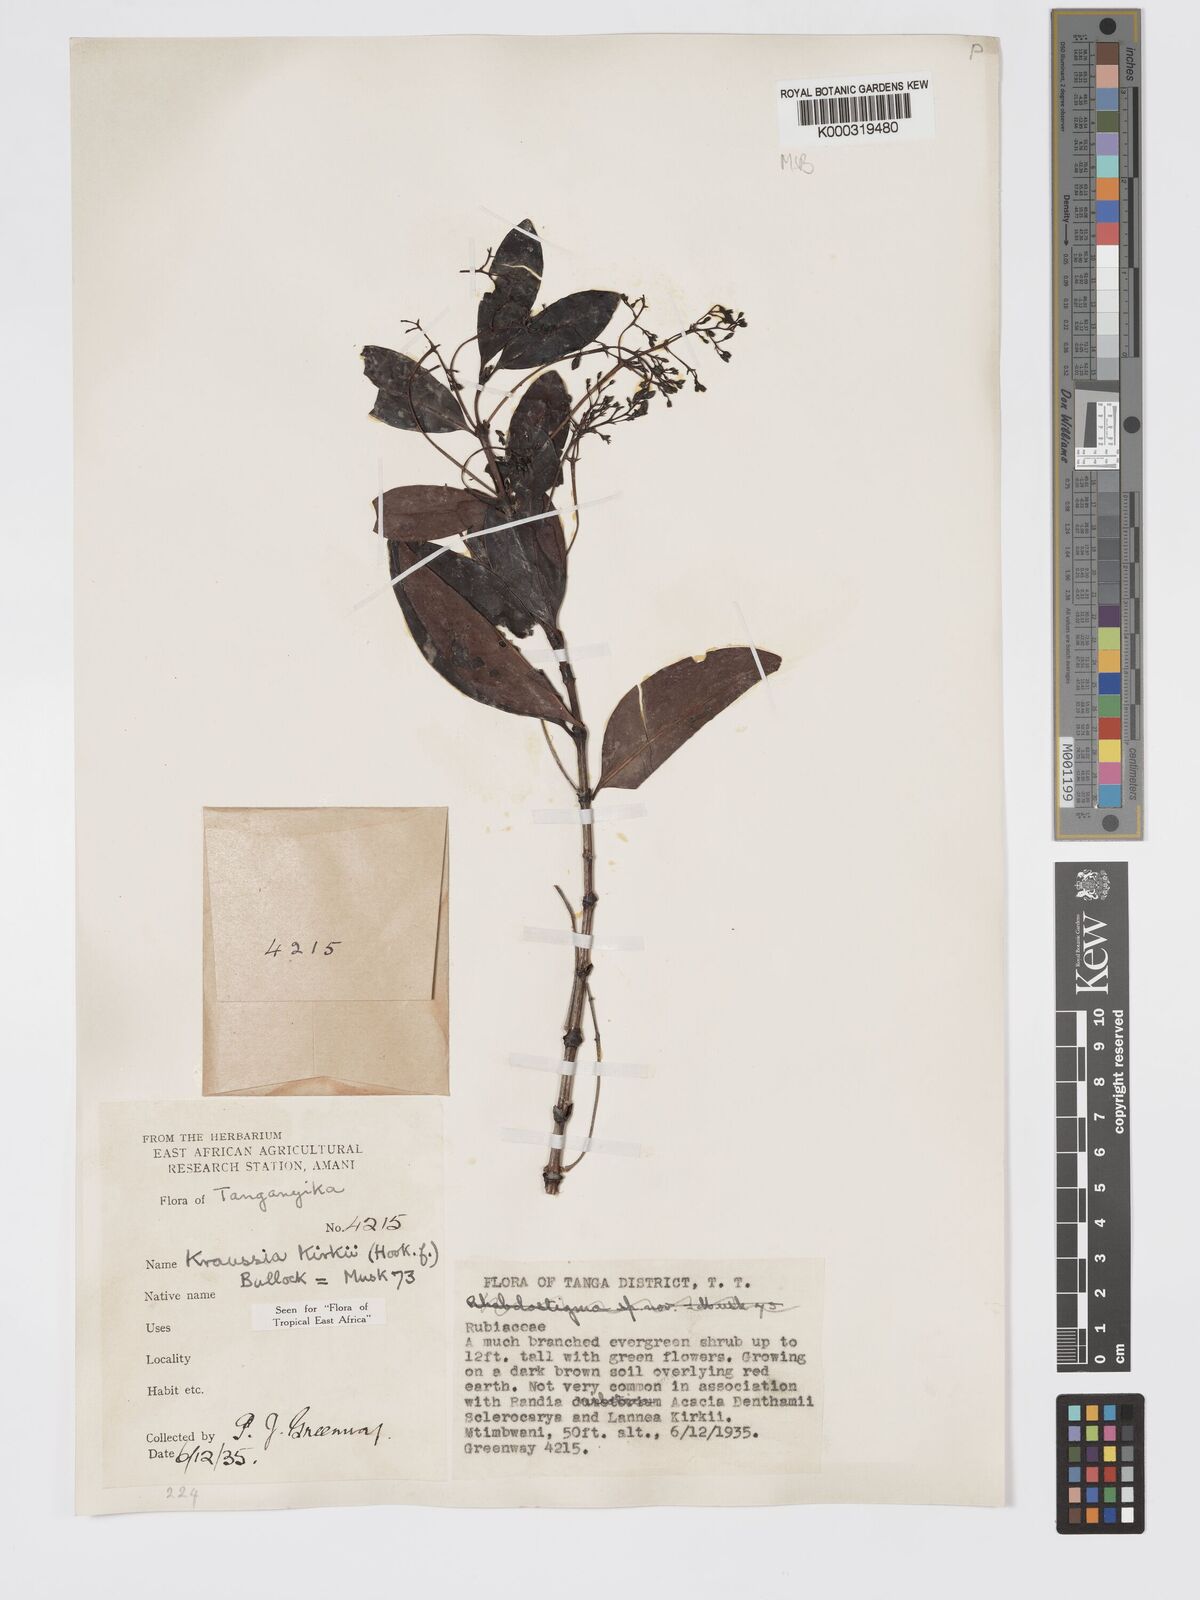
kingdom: Plantae
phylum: Tracheophyta
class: Magnoliopsida
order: Gentianales
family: Rubiaceae
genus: Kraussia
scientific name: Kraussia kirkii
